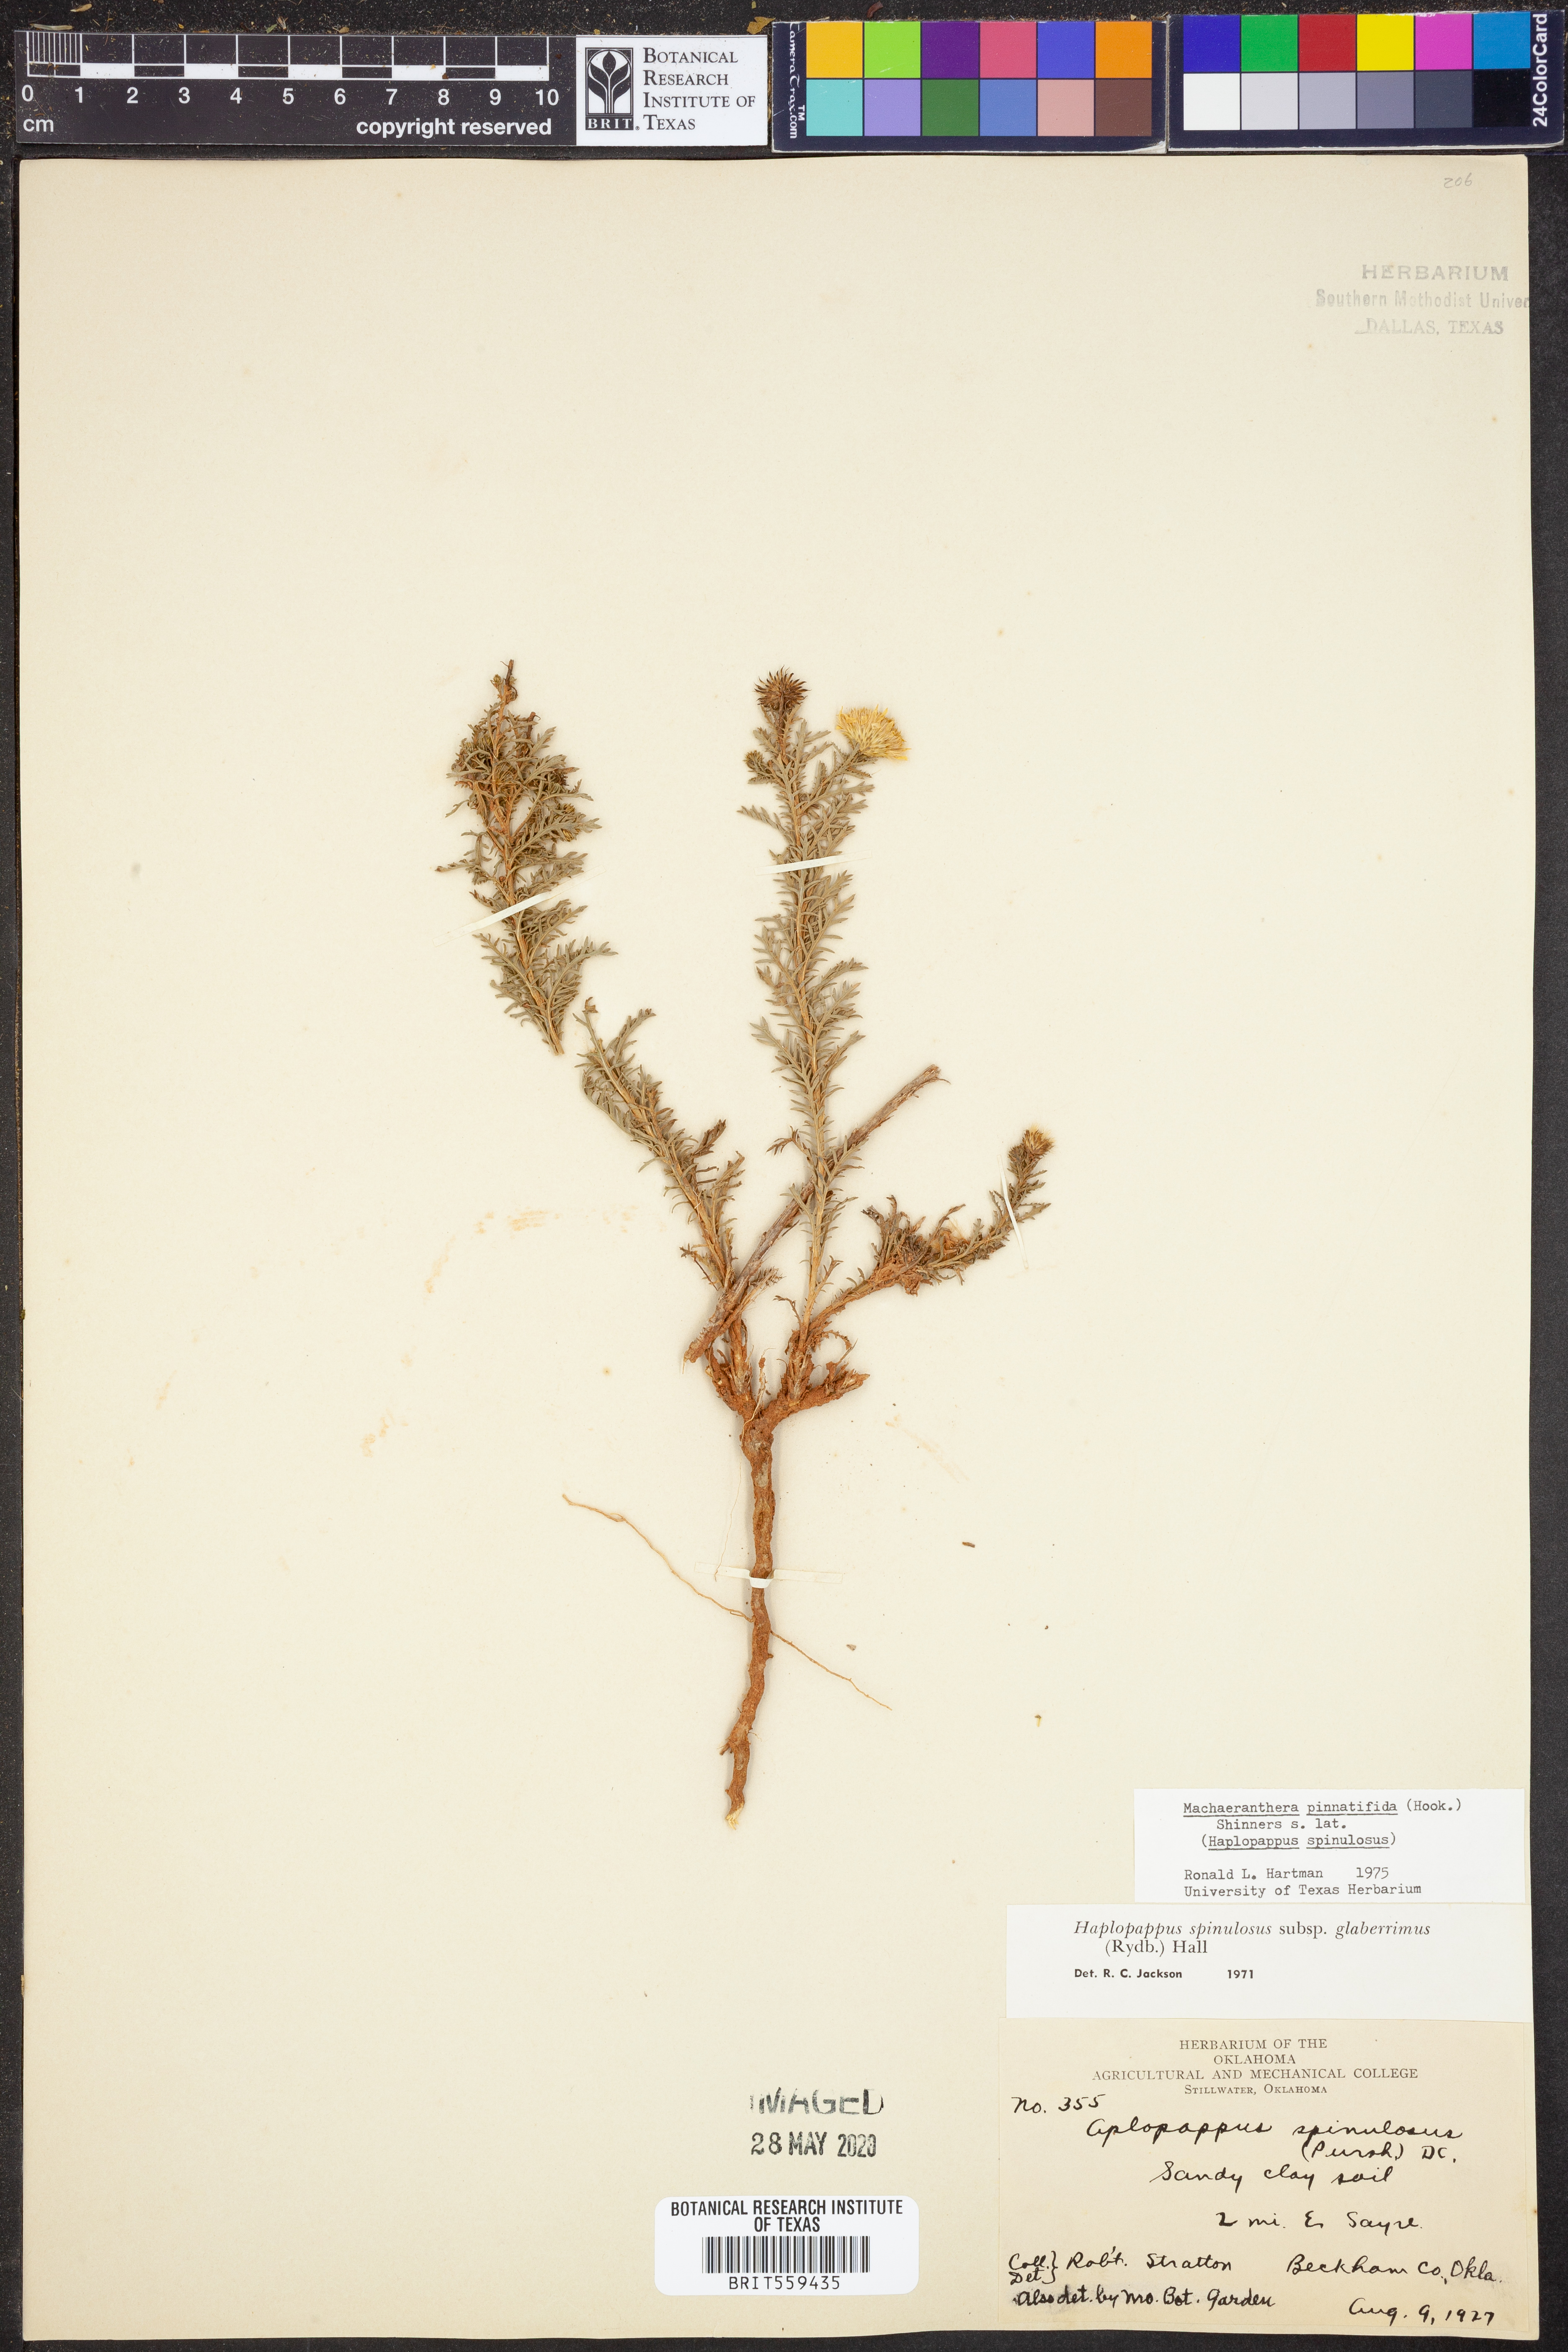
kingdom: Plantae
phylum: Tracheophyta
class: Magnoliopsida
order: Asterales
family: Asteraceae
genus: Xanthisma
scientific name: Xanthisma spinulosum
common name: Spiny goldenweed
